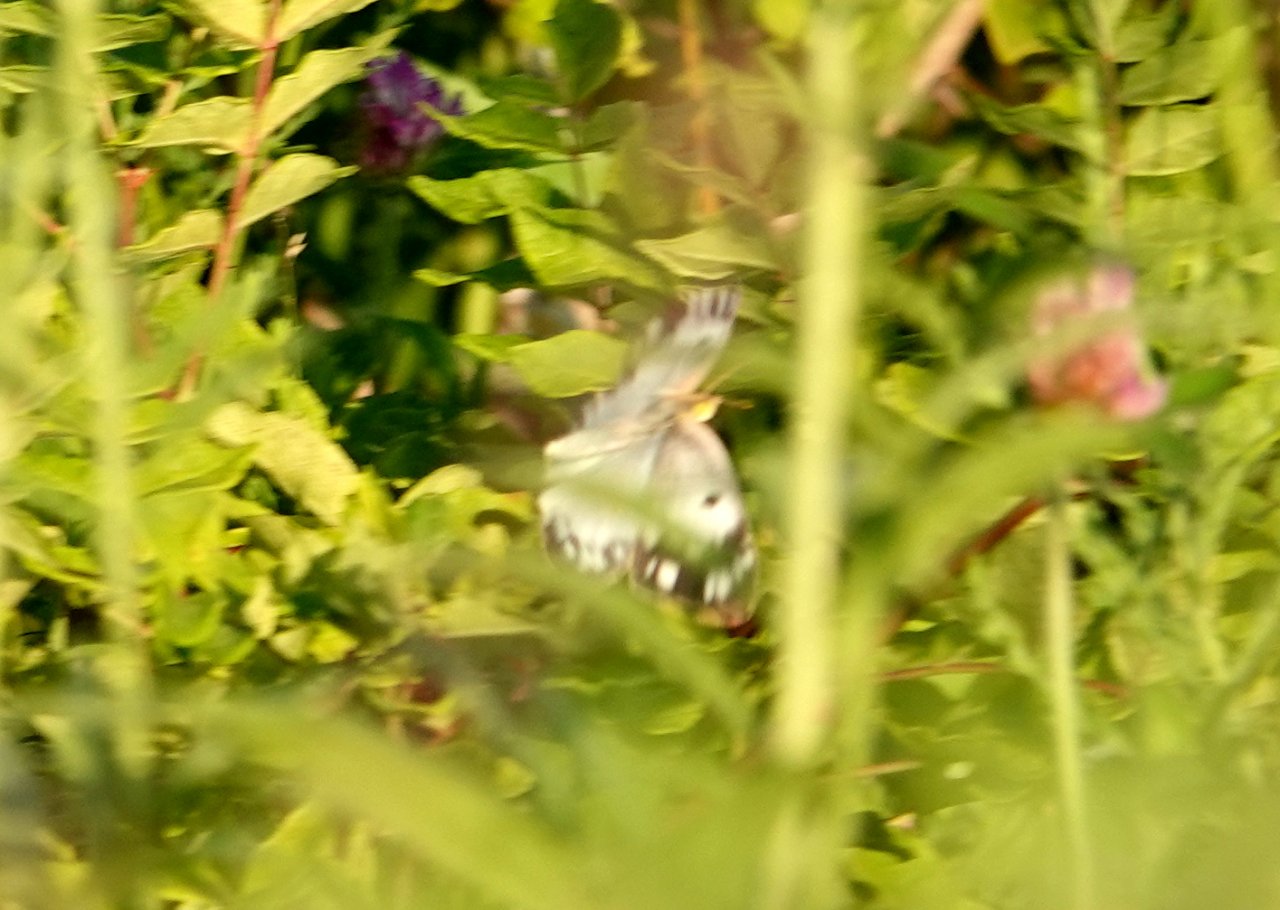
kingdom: Animalia
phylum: Arthropoda
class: Insecta
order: Lepidoptera
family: Pieridae
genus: Pontia
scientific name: Pontia protodice
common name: Checkered White
